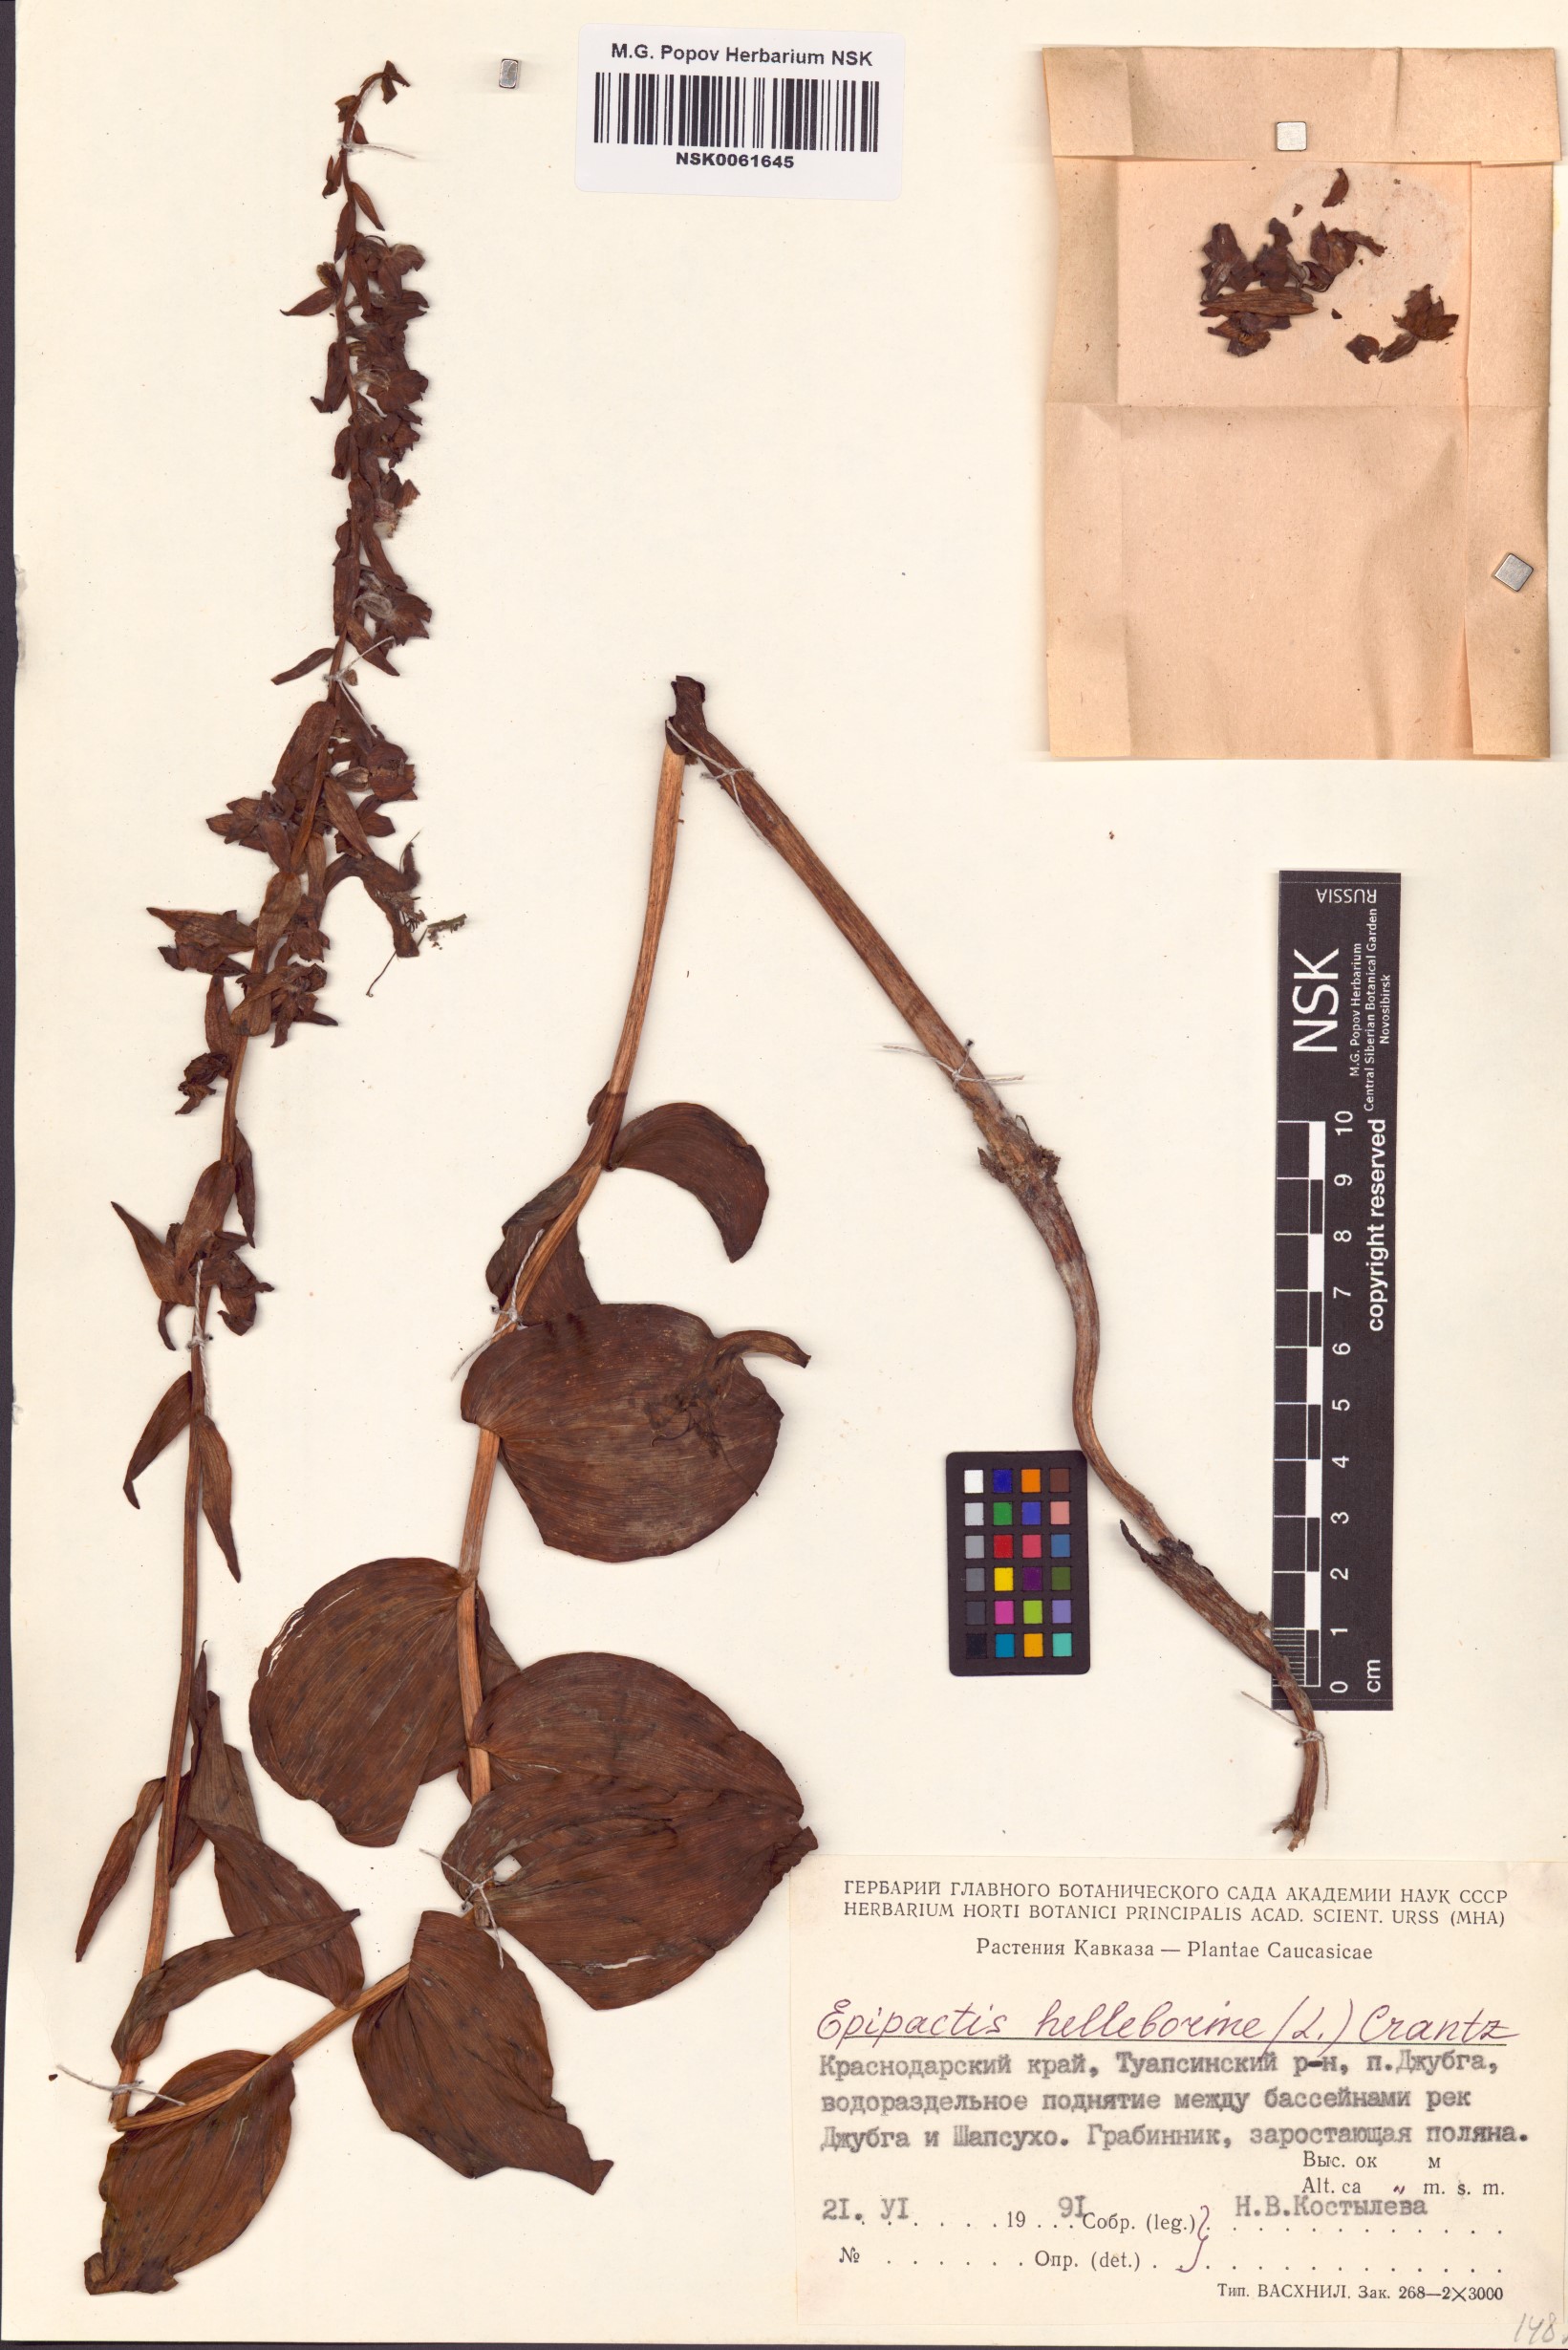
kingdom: Plantae
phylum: Tracheophyta
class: Liliopsida
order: Asparagales
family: Orchidaceae
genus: Epipactis
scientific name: Epipactis helleborine
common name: Broad-leaved helleborine
